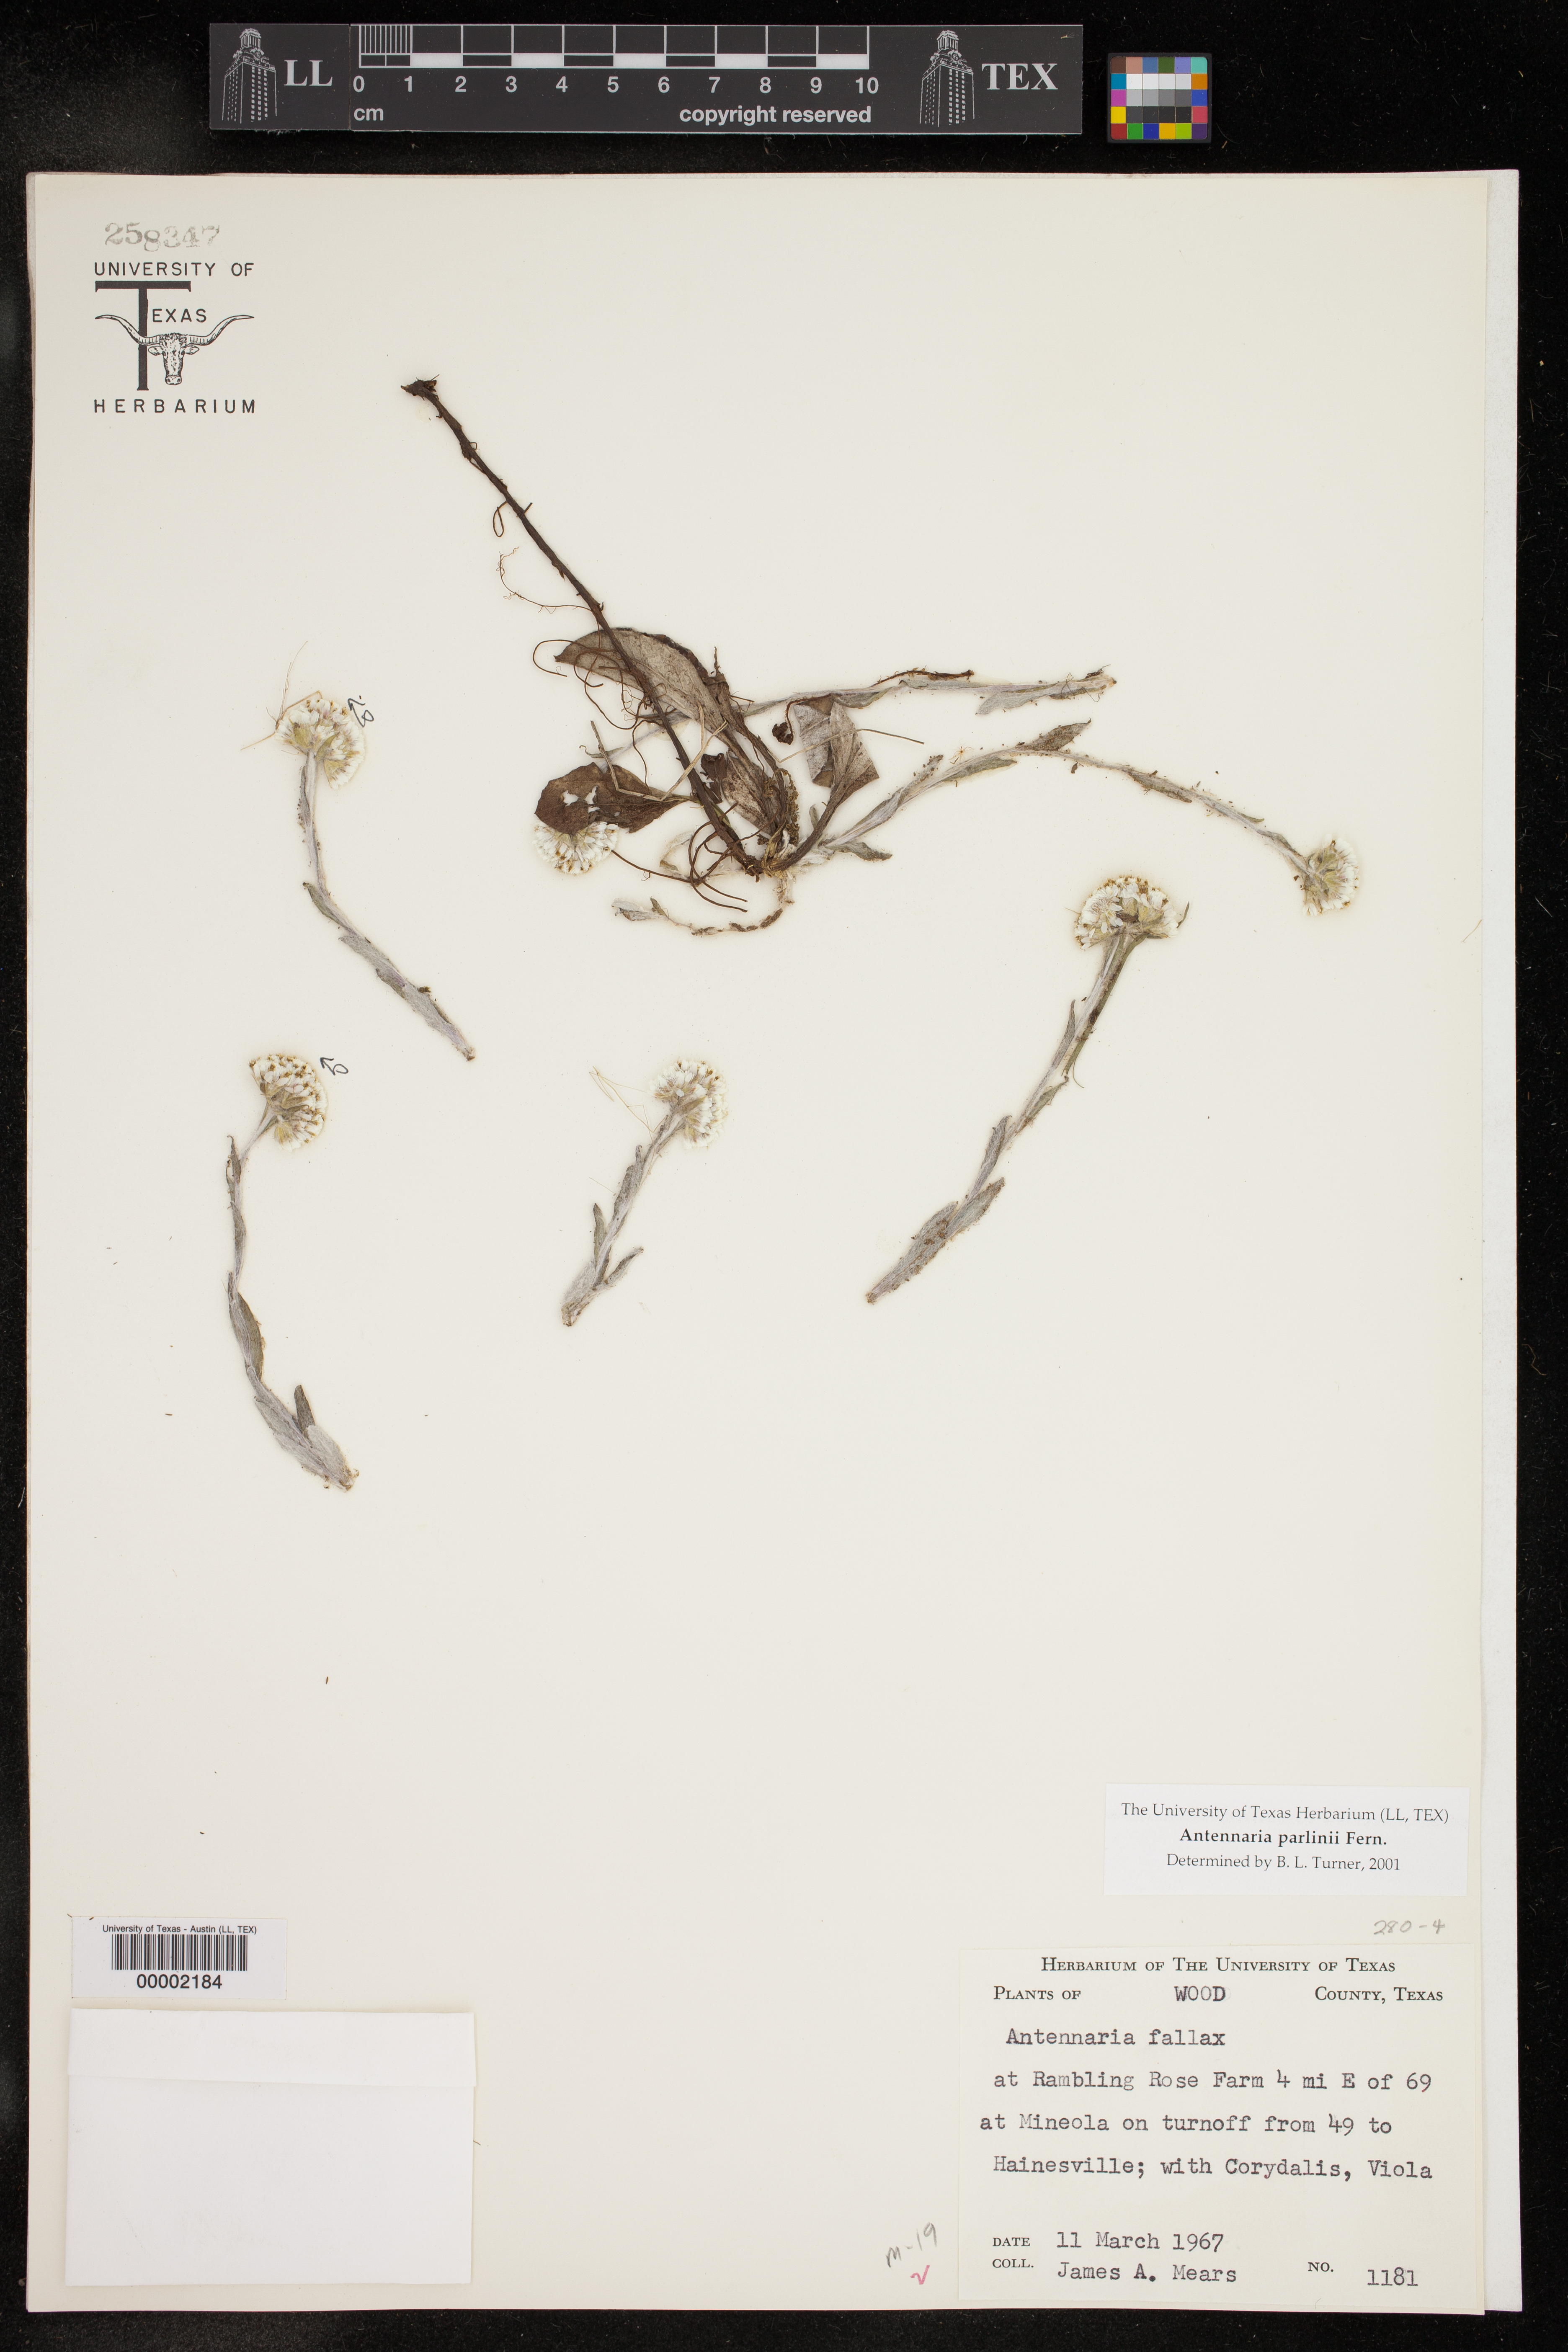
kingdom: Plantae
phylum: Tracheophyta
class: Magnoliopsida
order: Asterales
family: Asteraceae
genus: Antennaria
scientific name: Antennaria parlinii
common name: Parlin's pussytoes
